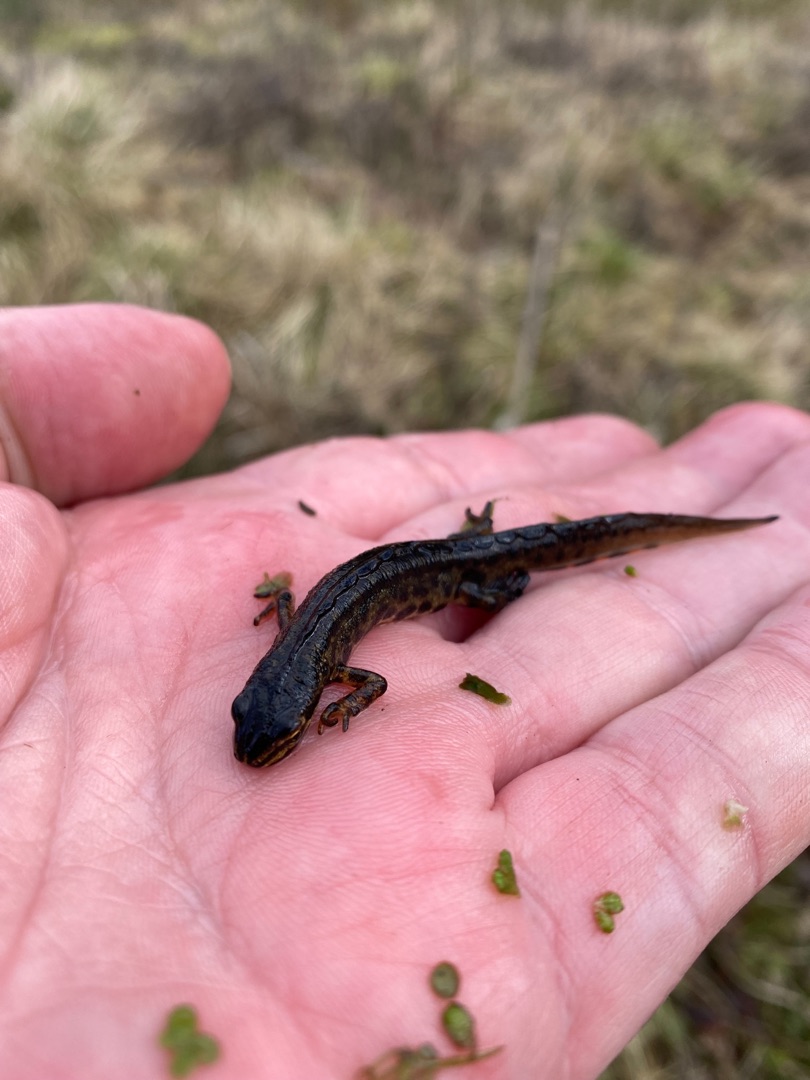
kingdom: Animalia
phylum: Chordata
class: Amphibia
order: Caudata
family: Salamandridae
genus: Lissotriton
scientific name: Lissotriton vulgaris
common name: Lille vandsalamander
